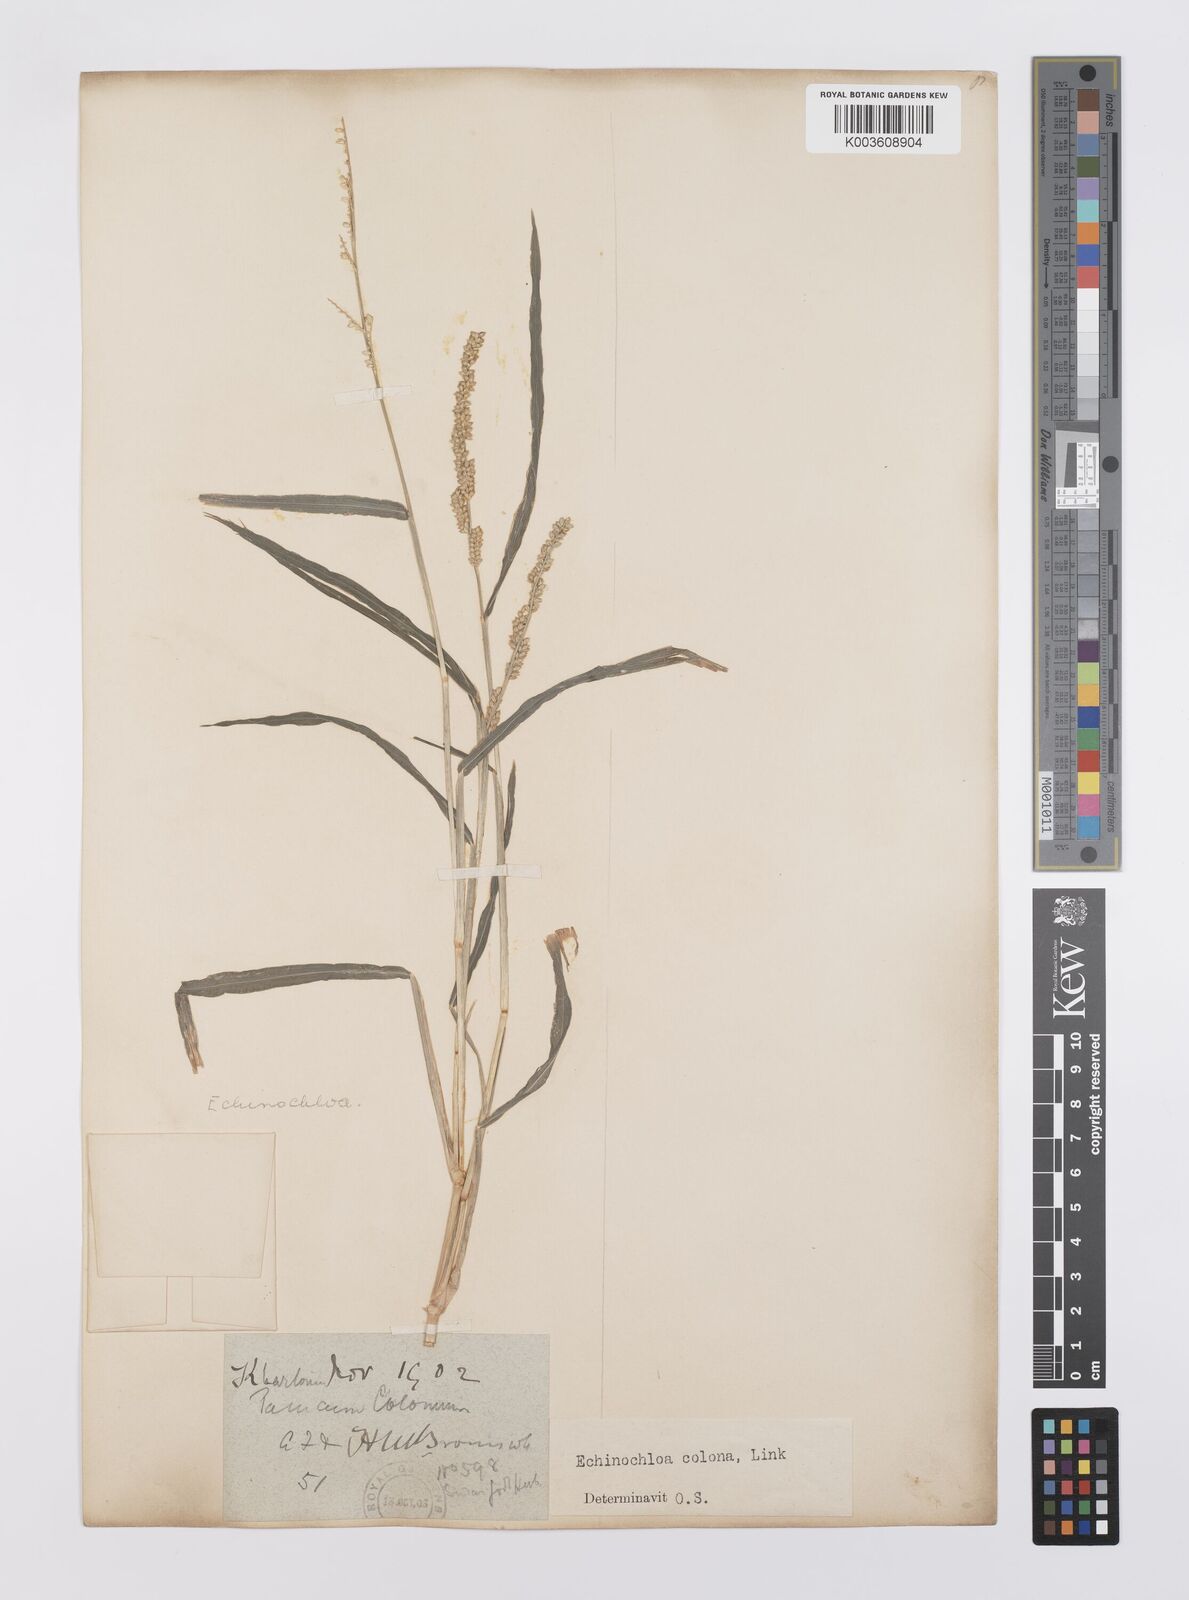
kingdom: Plantae
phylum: Tracheophyta
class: Liliopsida
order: Poales
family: Poaceae
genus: Echinochloa
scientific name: Echinochloa colonum
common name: Jungle rice
